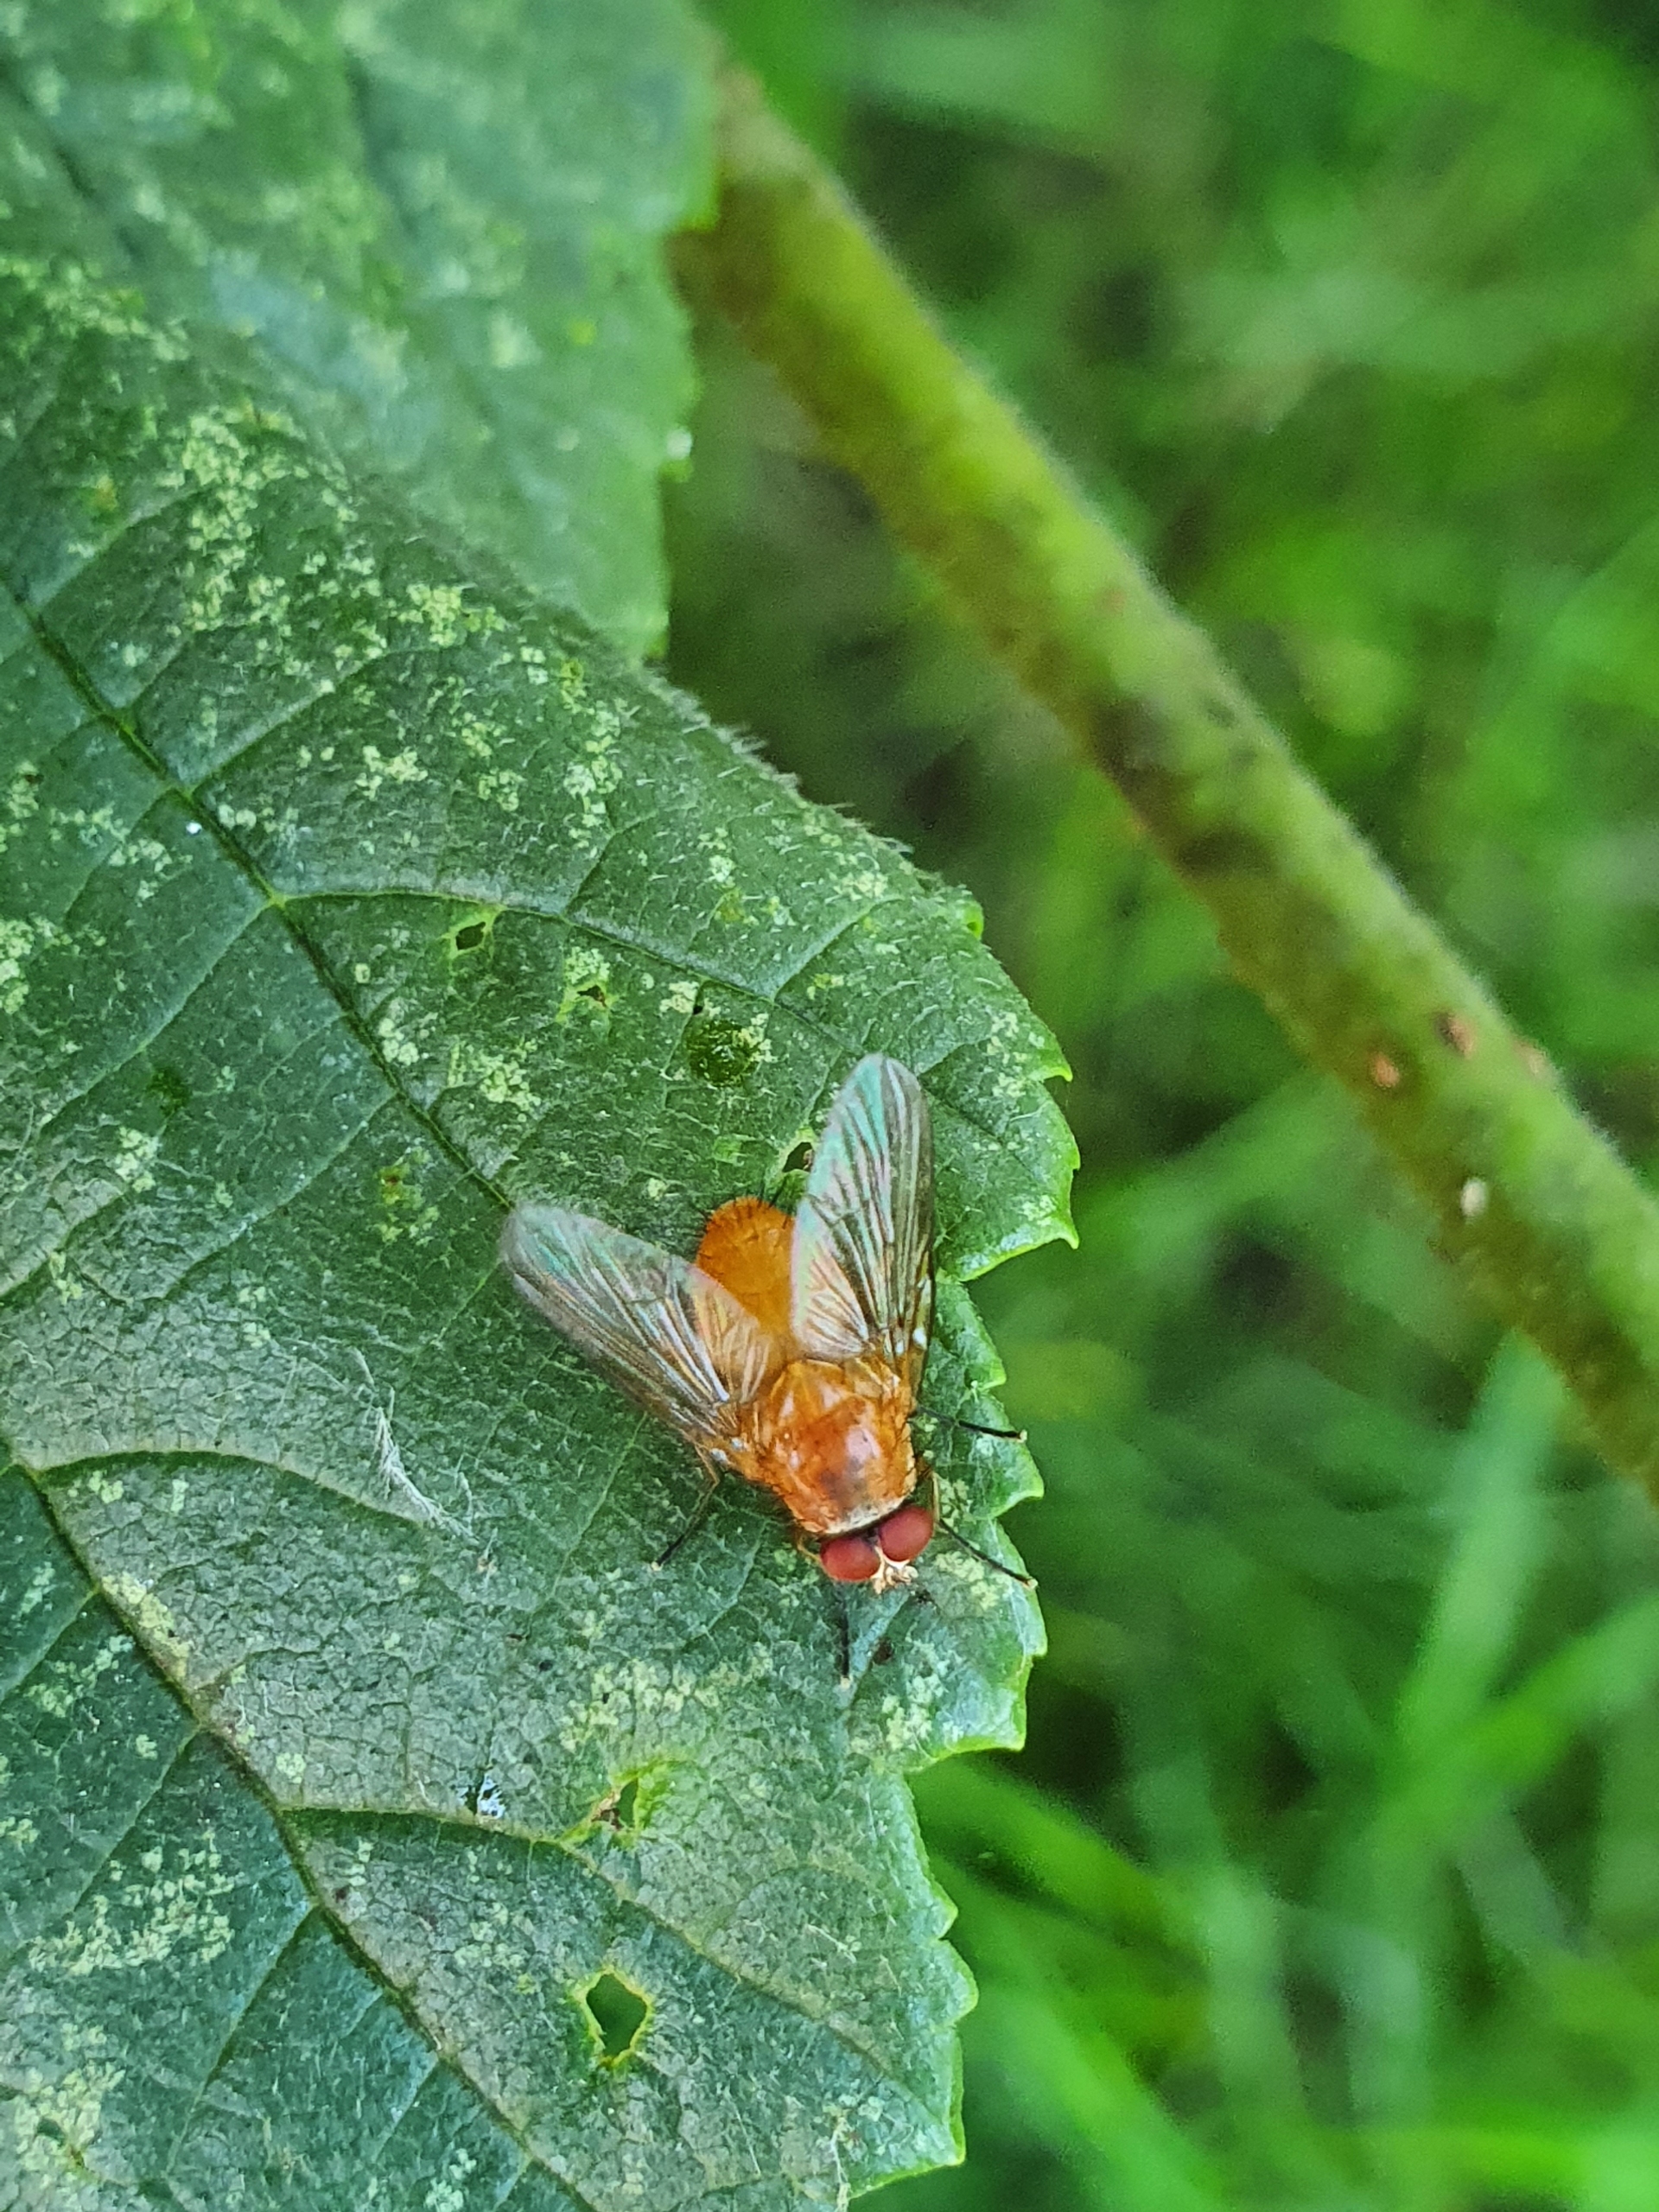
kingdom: Animalia
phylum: Arthropoda
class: Insecta
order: Diptera
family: Muscidae
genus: Phaonia
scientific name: Phaonia pallida
